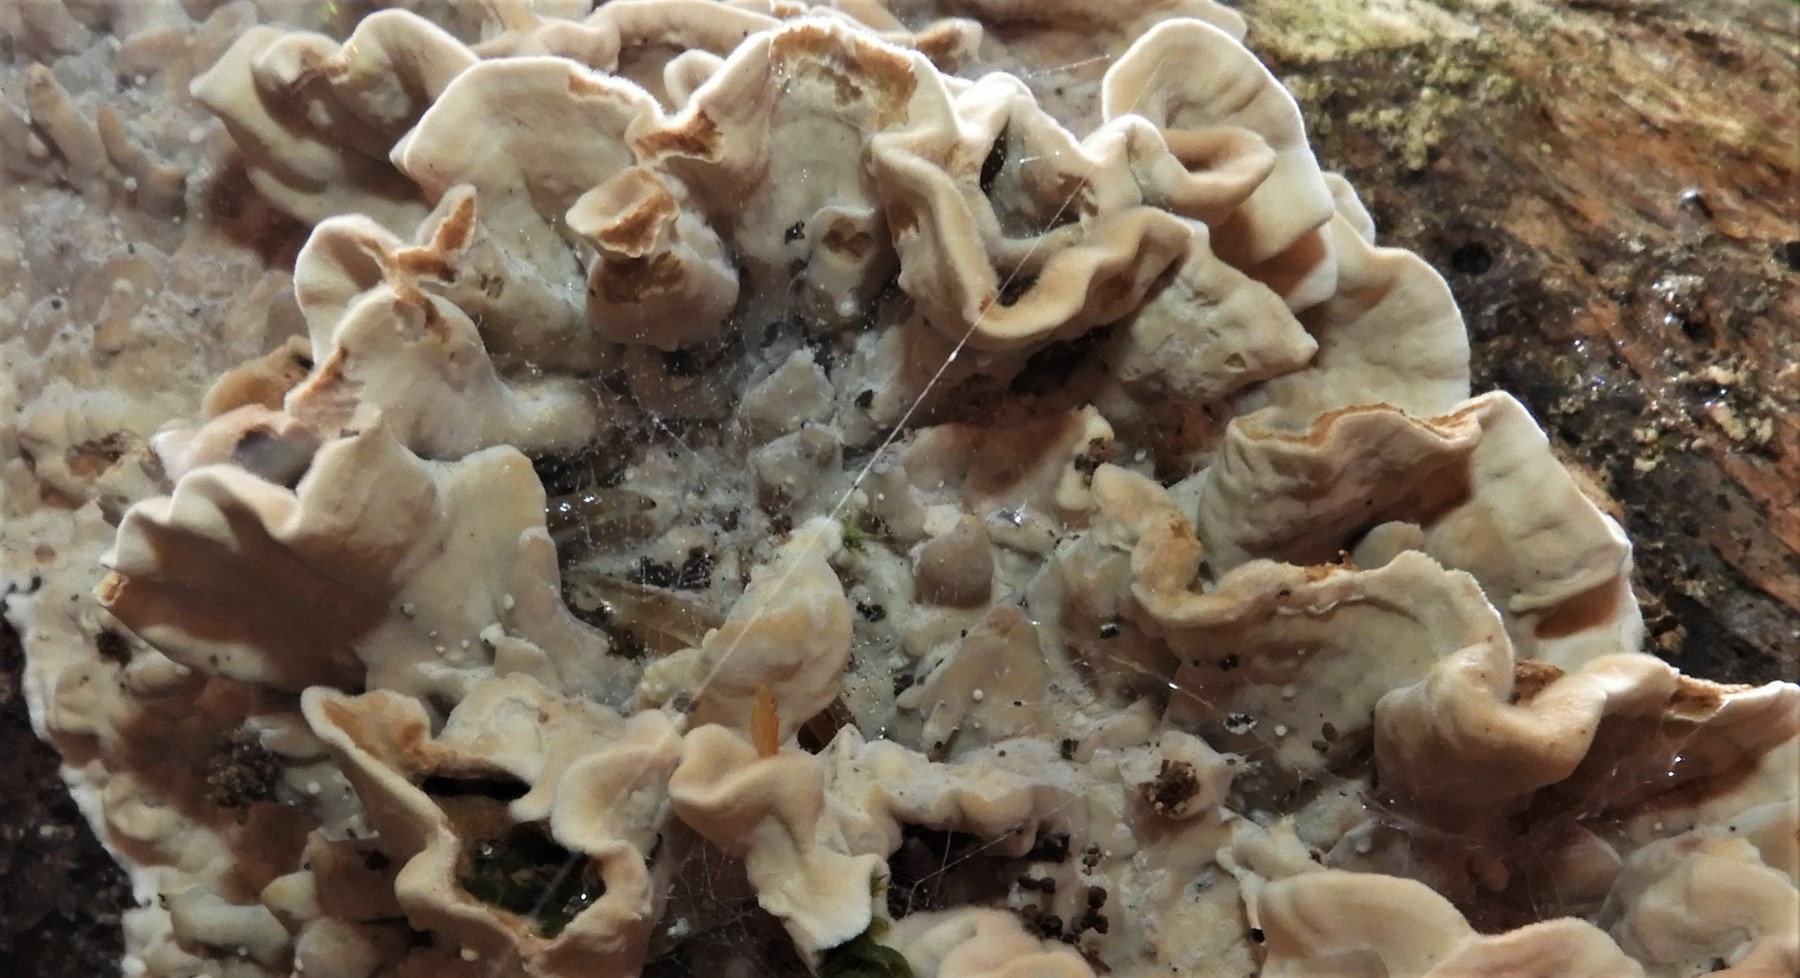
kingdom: Fungi
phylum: Basidiomycota
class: Agaricomycetes
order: Polyporales
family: Polyporaceae
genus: Trametes
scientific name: Trametes versicolor
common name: broget læderporesvamp
